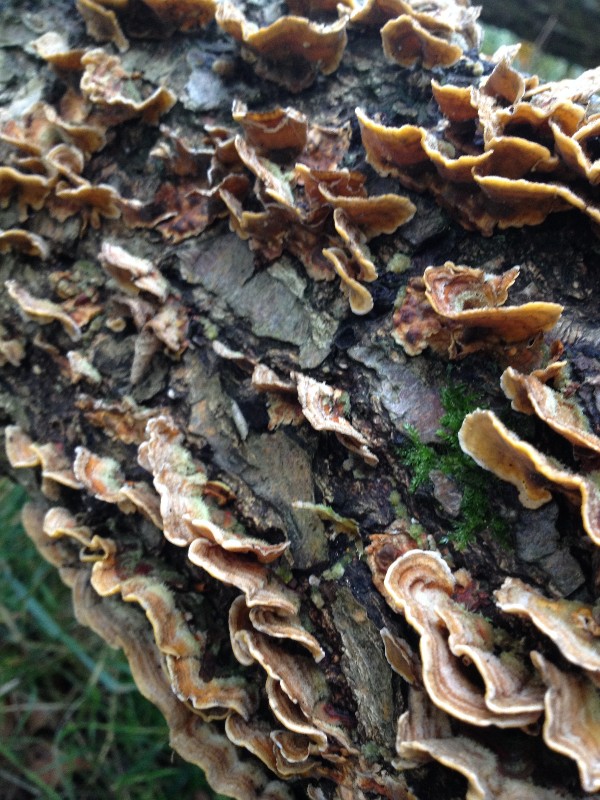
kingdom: Fungi
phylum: Basidiomycota
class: Agaricomycetes
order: Russulales
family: Stereaceae
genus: Stereum
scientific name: Stereum hirsutum
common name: håret lædersvamp
